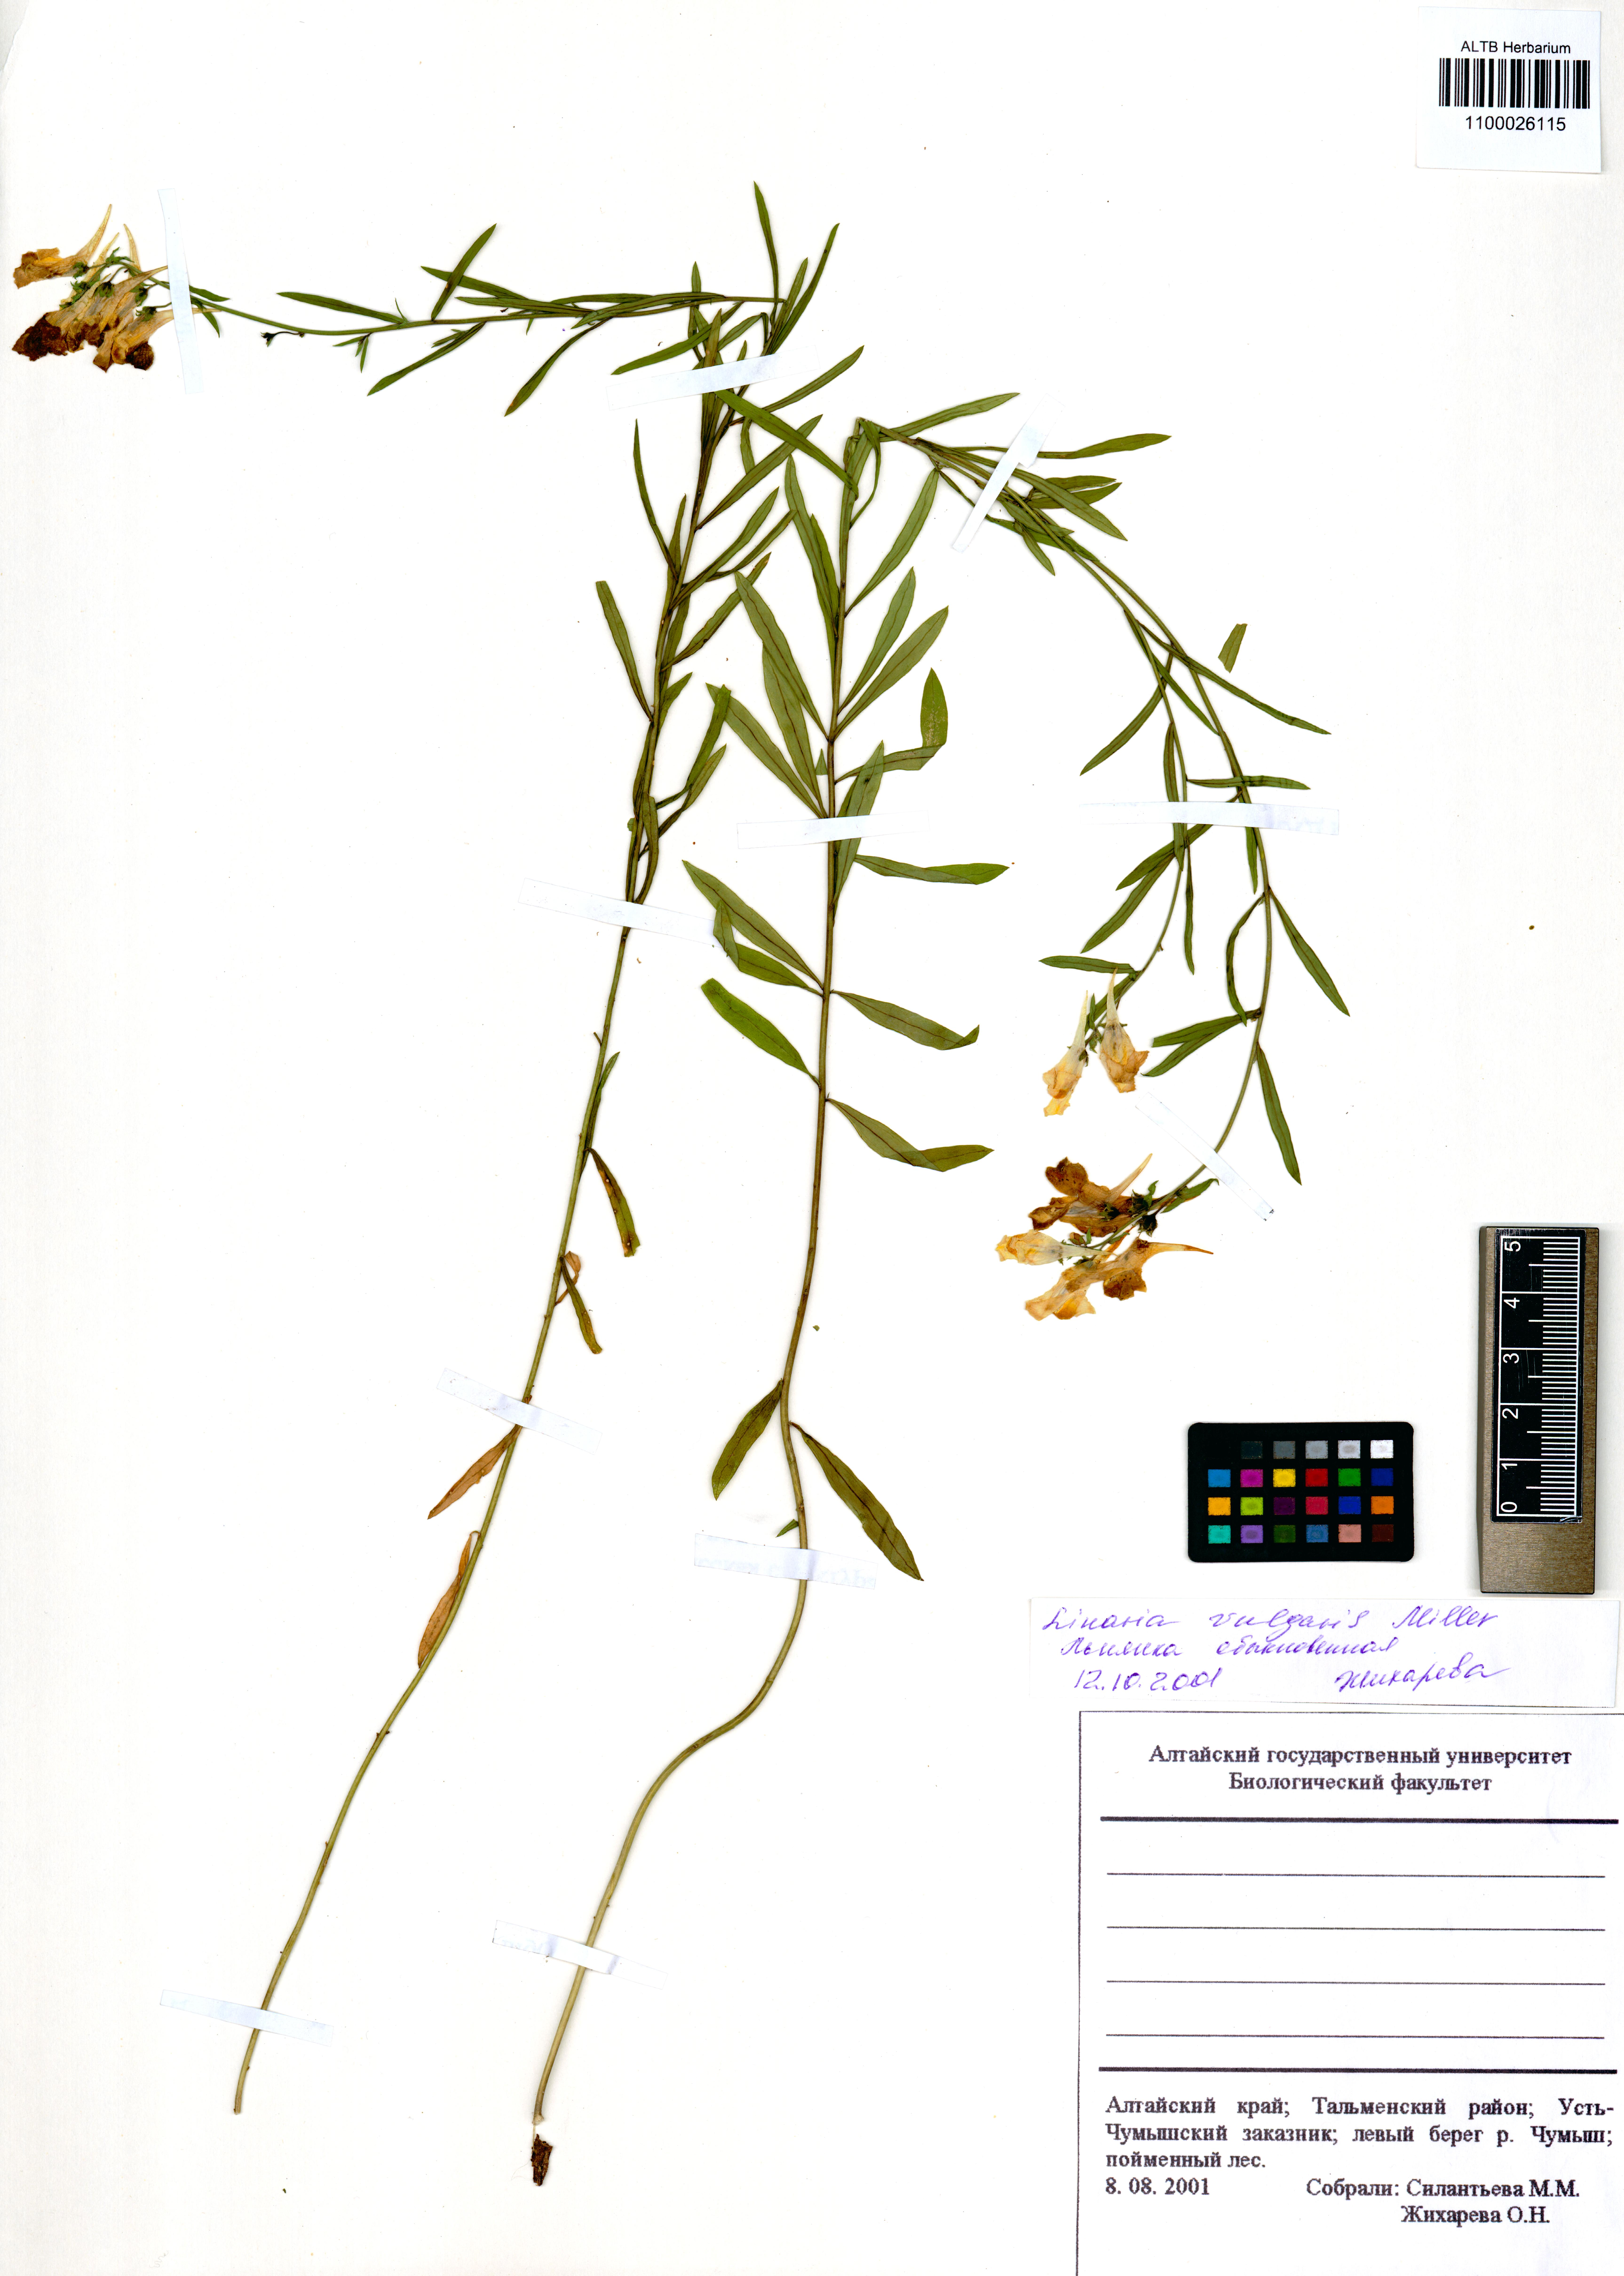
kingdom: Plantae
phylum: Tracheophyta
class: Magnoliopsida
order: Lamiales
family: Plantaginaceae
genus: Linaria
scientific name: Linaria vulgaris
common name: Butter and eggs
